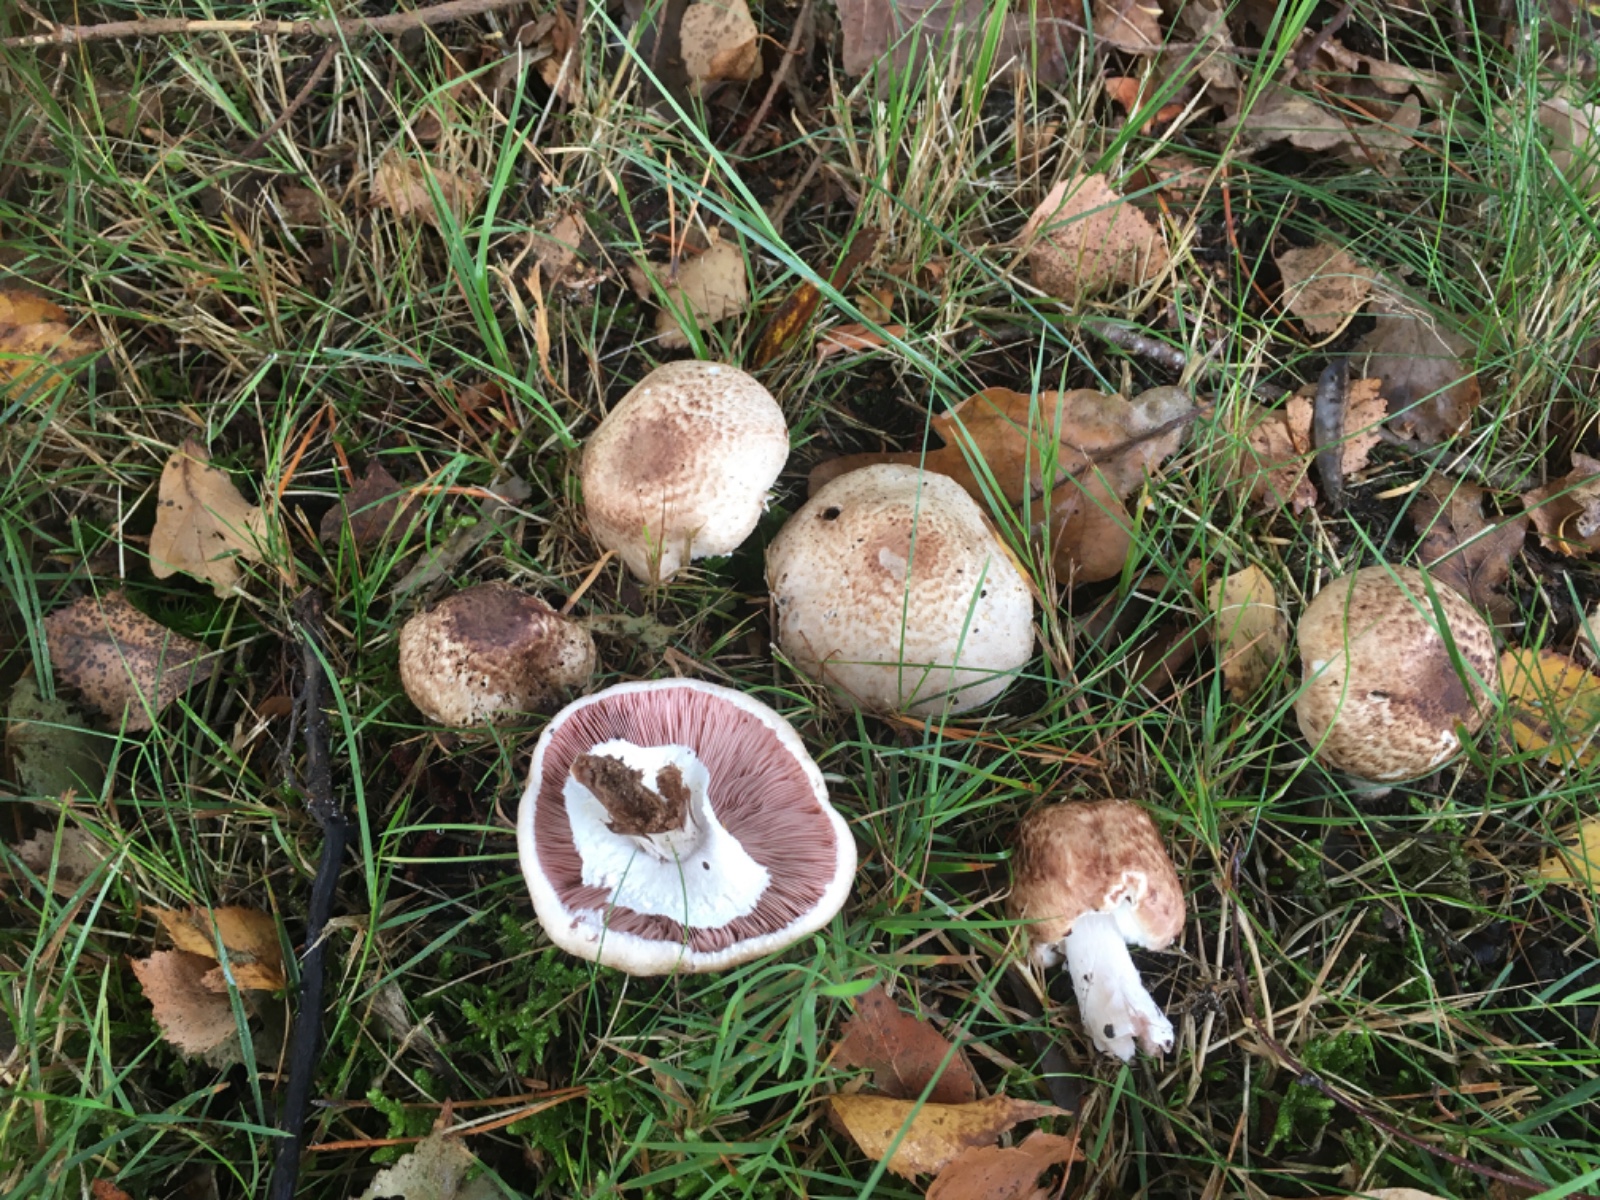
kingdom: Fungi
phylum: Basidiomycota
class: Agaricomycetes
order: Agaricales
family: Agaricaceae
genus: Agaricus
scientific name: Agaricus impudicus
